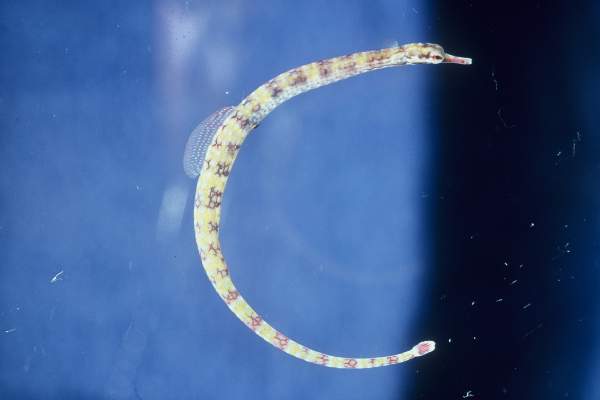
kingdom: Animalia
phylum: Chordata
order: Syngnathiformes
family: Syngnathidae
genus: Corythoichthys
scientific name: Corythoichthys flavofasciatus
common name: Banded pipefish
